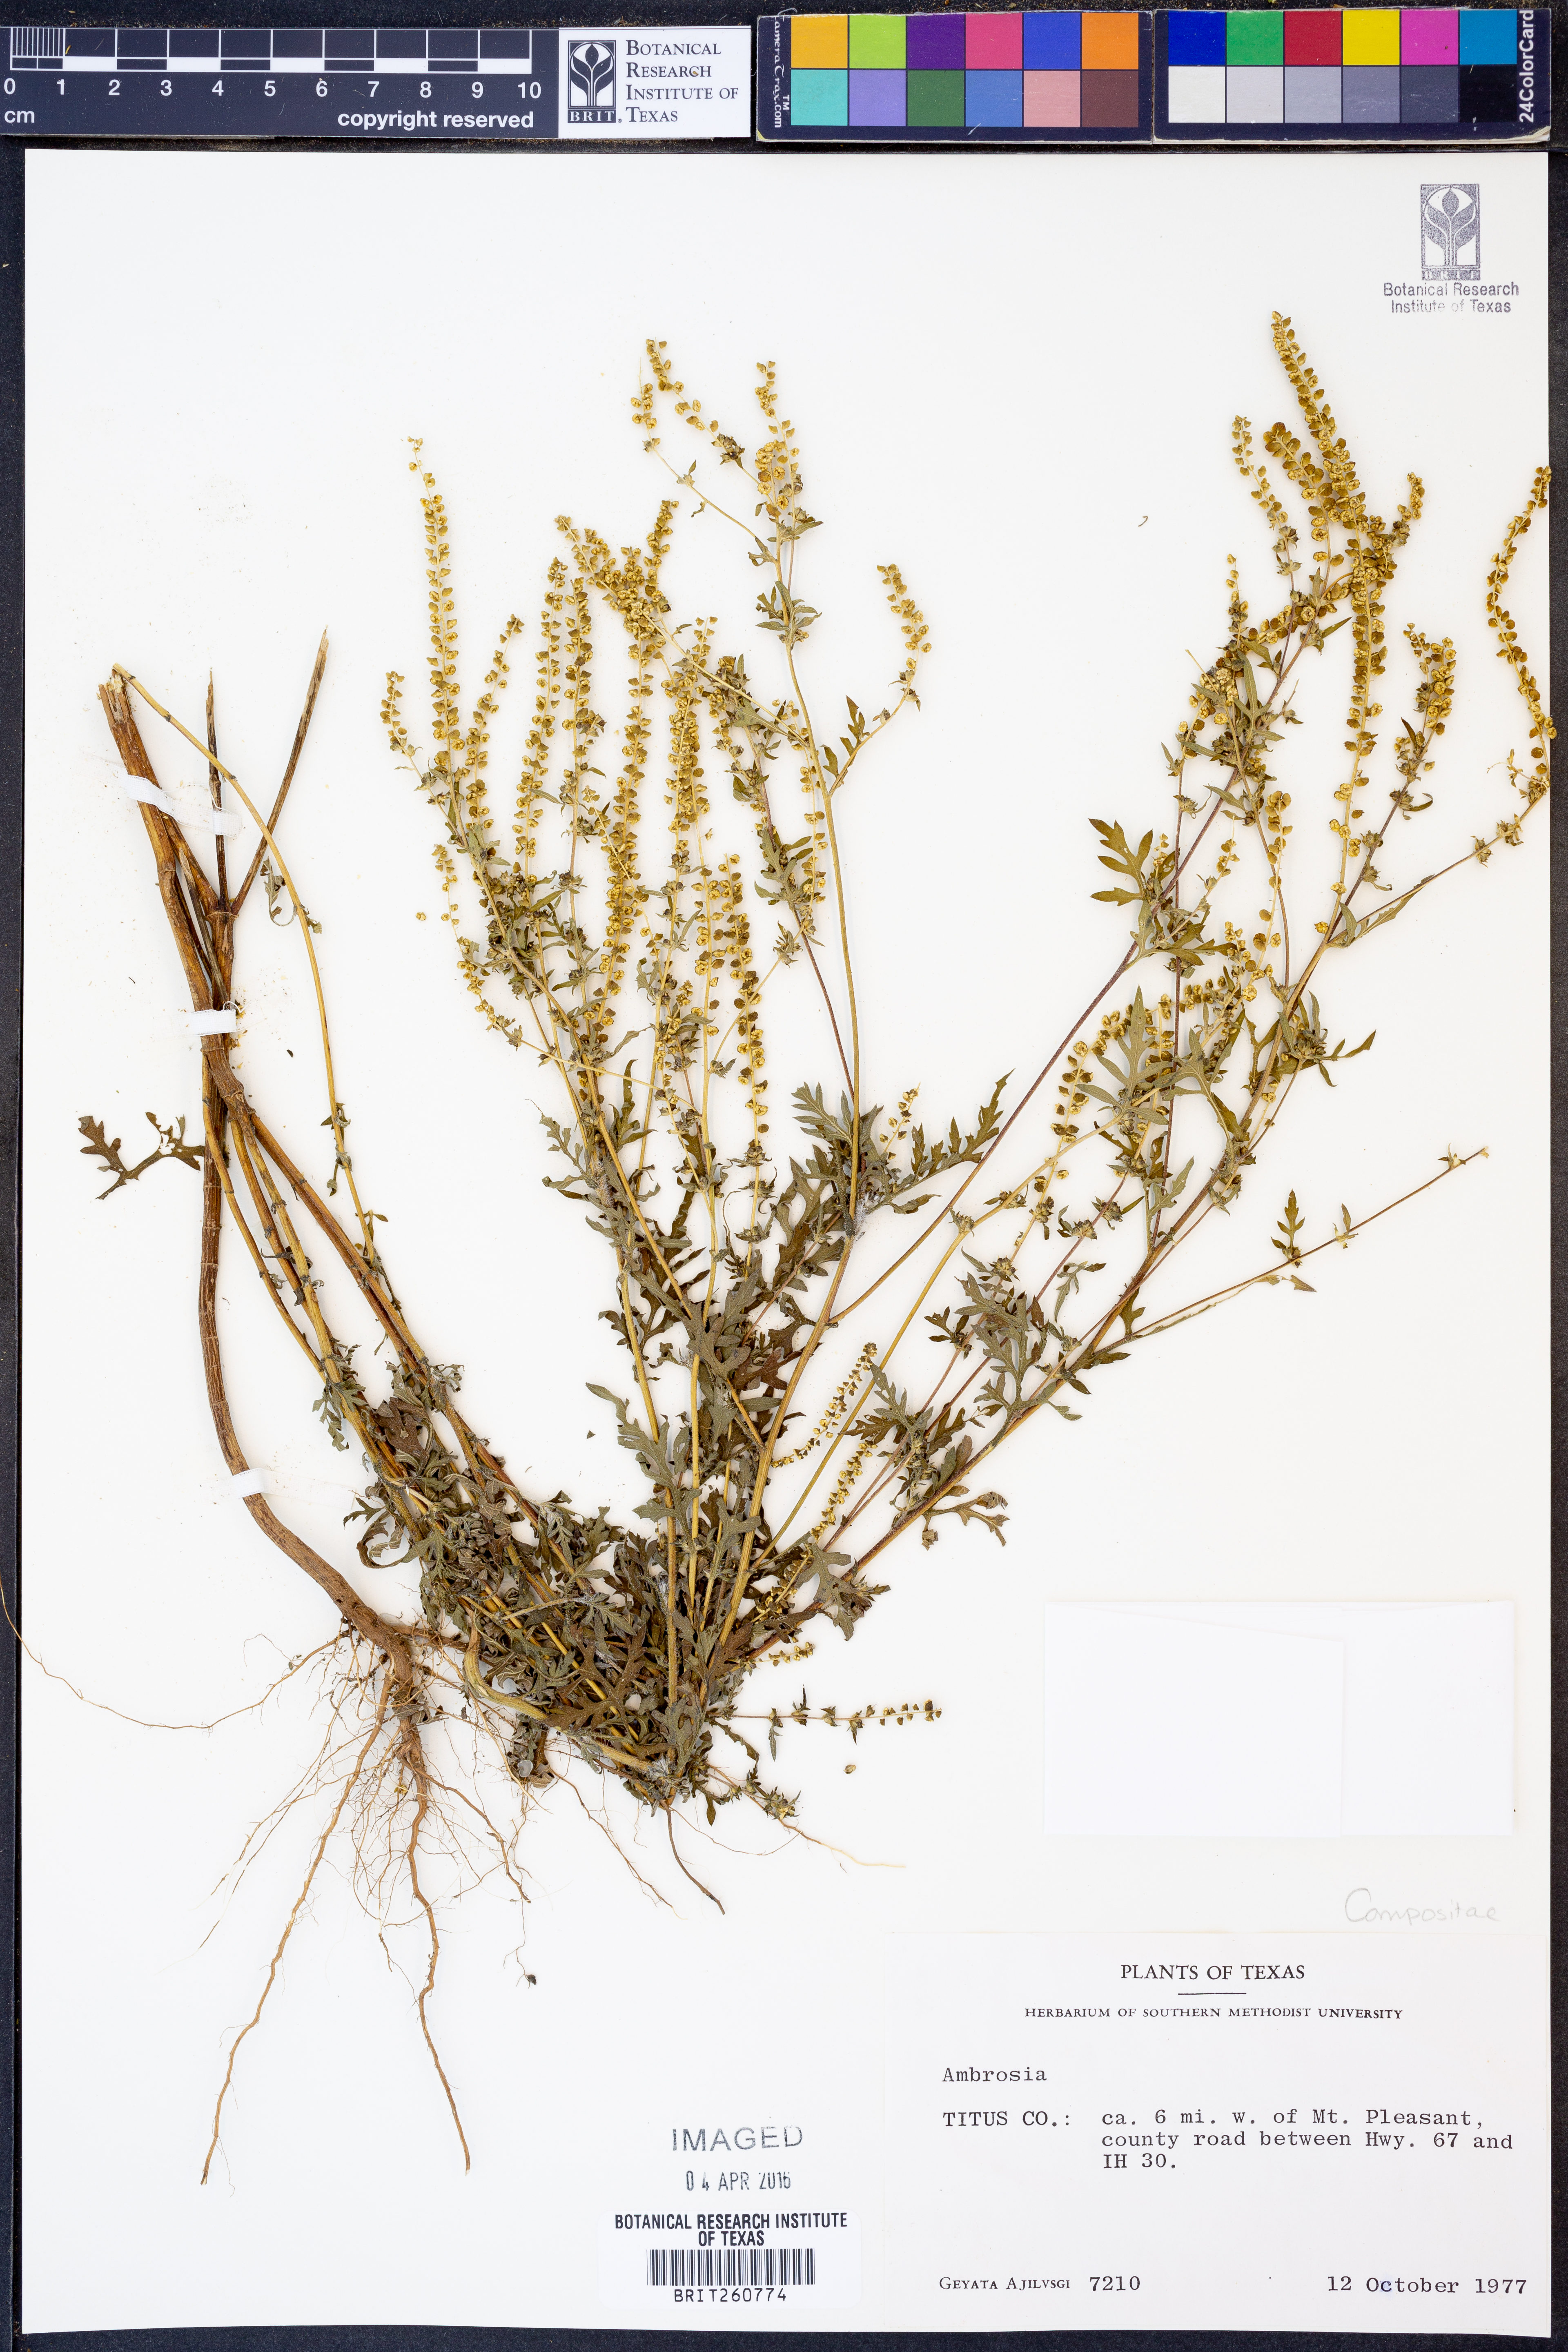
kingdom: Plantae
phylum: Tracheophyta
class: Magnoliopsida
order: Asterales
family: Asteraceae
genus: Ambrosia
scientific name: Ambrosia
